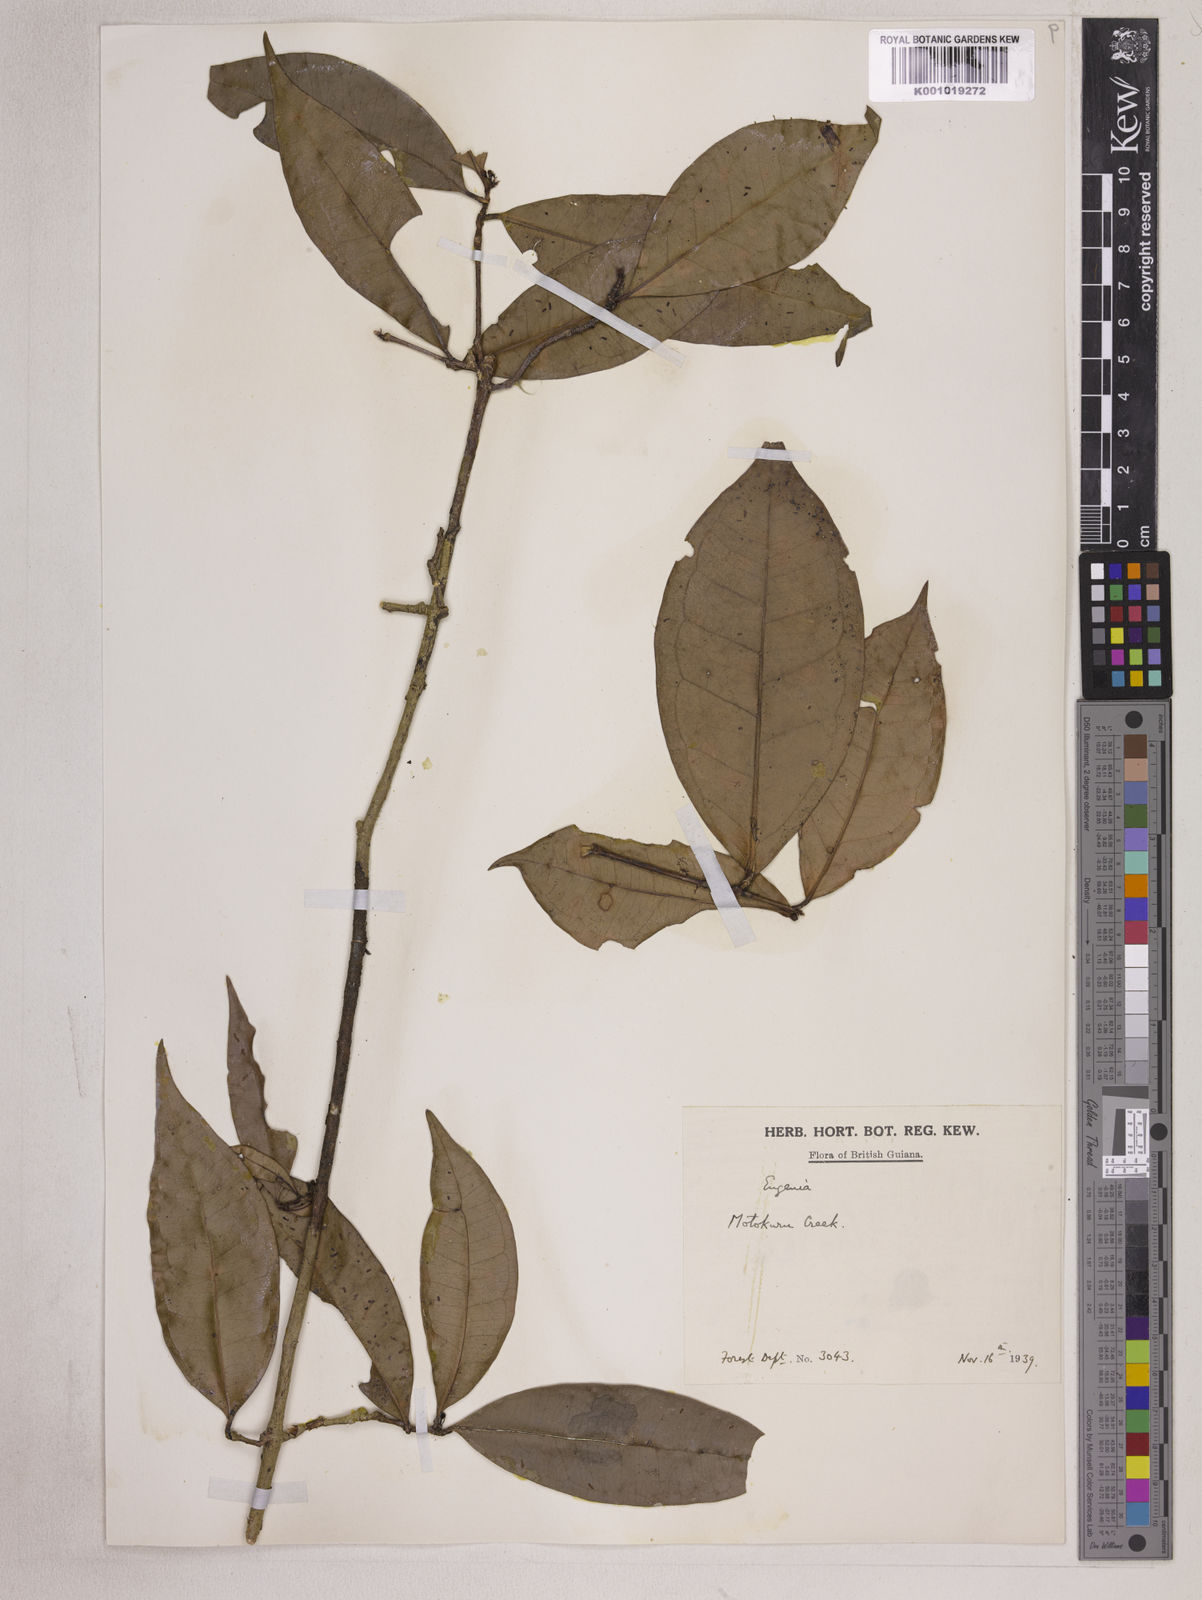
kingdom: Plantae
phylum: Tracheophyta
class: Magnoliopsida
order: Myrtales
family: Myrtaceae
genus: Eugenia
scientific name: Eugenia patrisii
